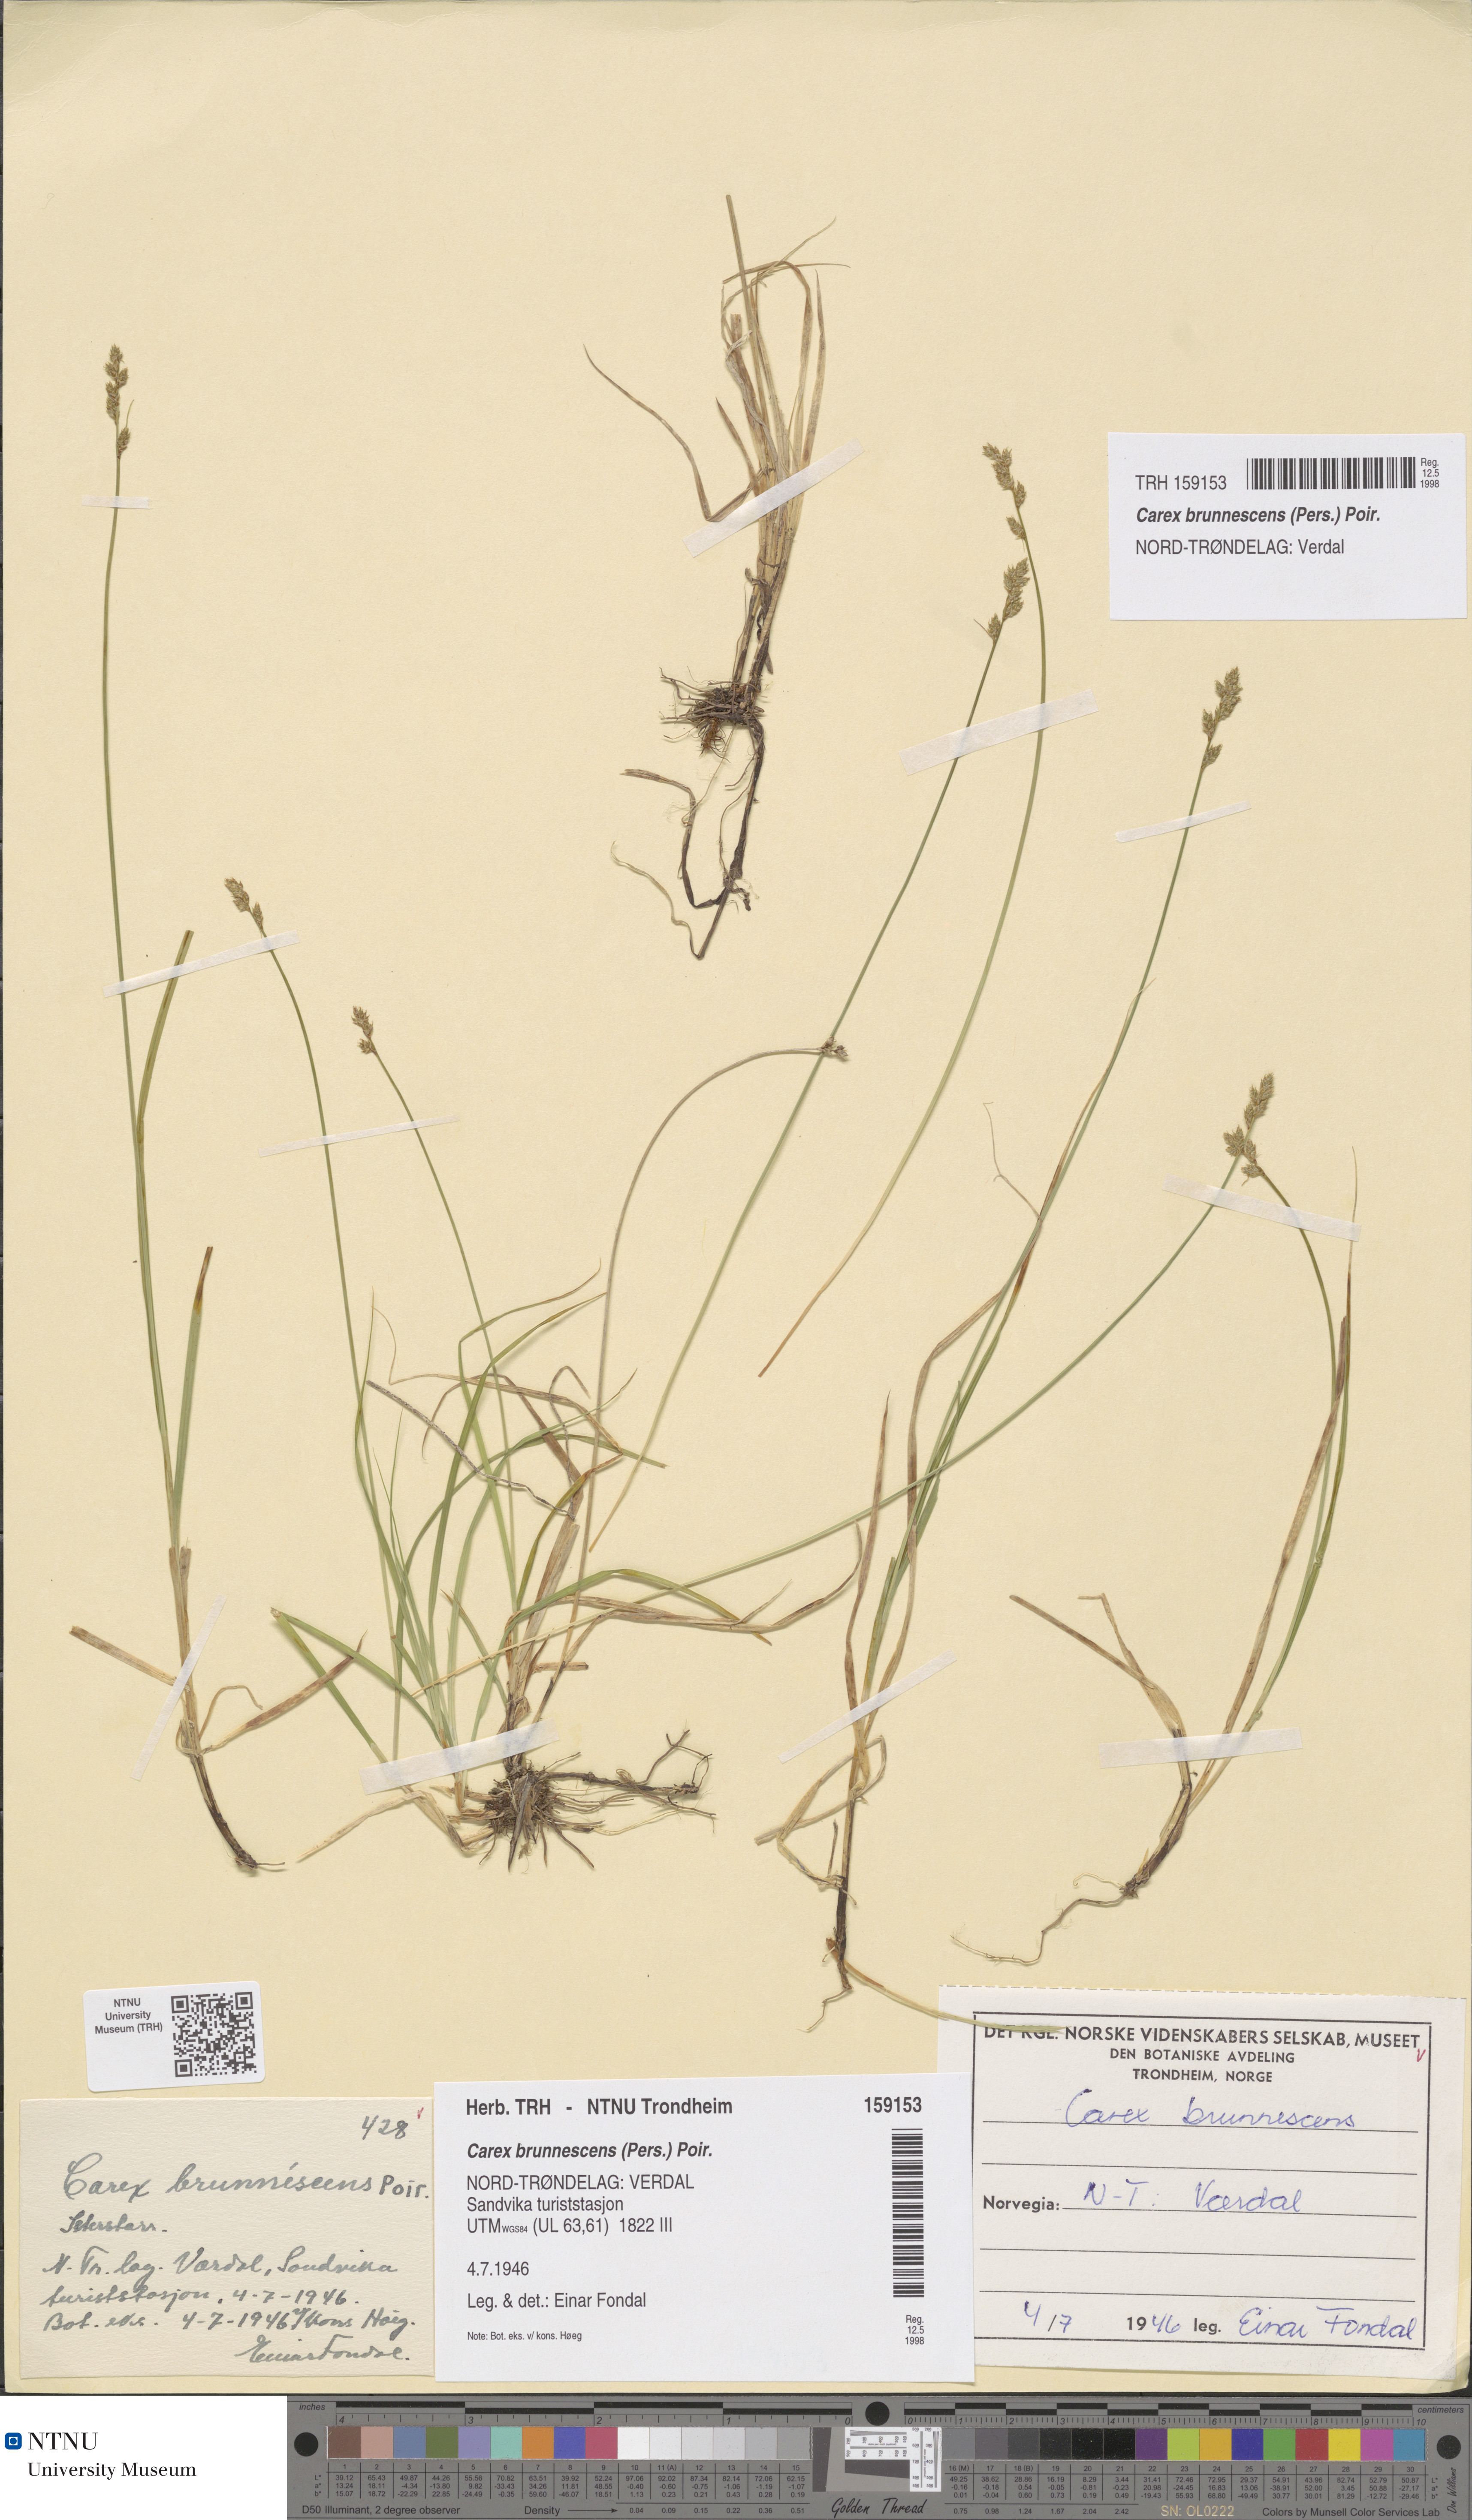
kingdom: Plantae
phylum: Tracheophyta
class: Liliopsida
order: Poales
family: Cyperaceae
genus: Carex
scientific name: Carex brunnescens
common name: Brown sedge
